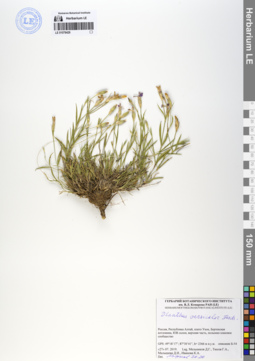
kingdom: Plantae
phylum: Tracheophyta
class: Magnoliopsida
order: Caryophyllales
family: Caryophyllaceae
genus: Dianthus
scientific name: Dianthus chinensis
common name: Rainbow pink
